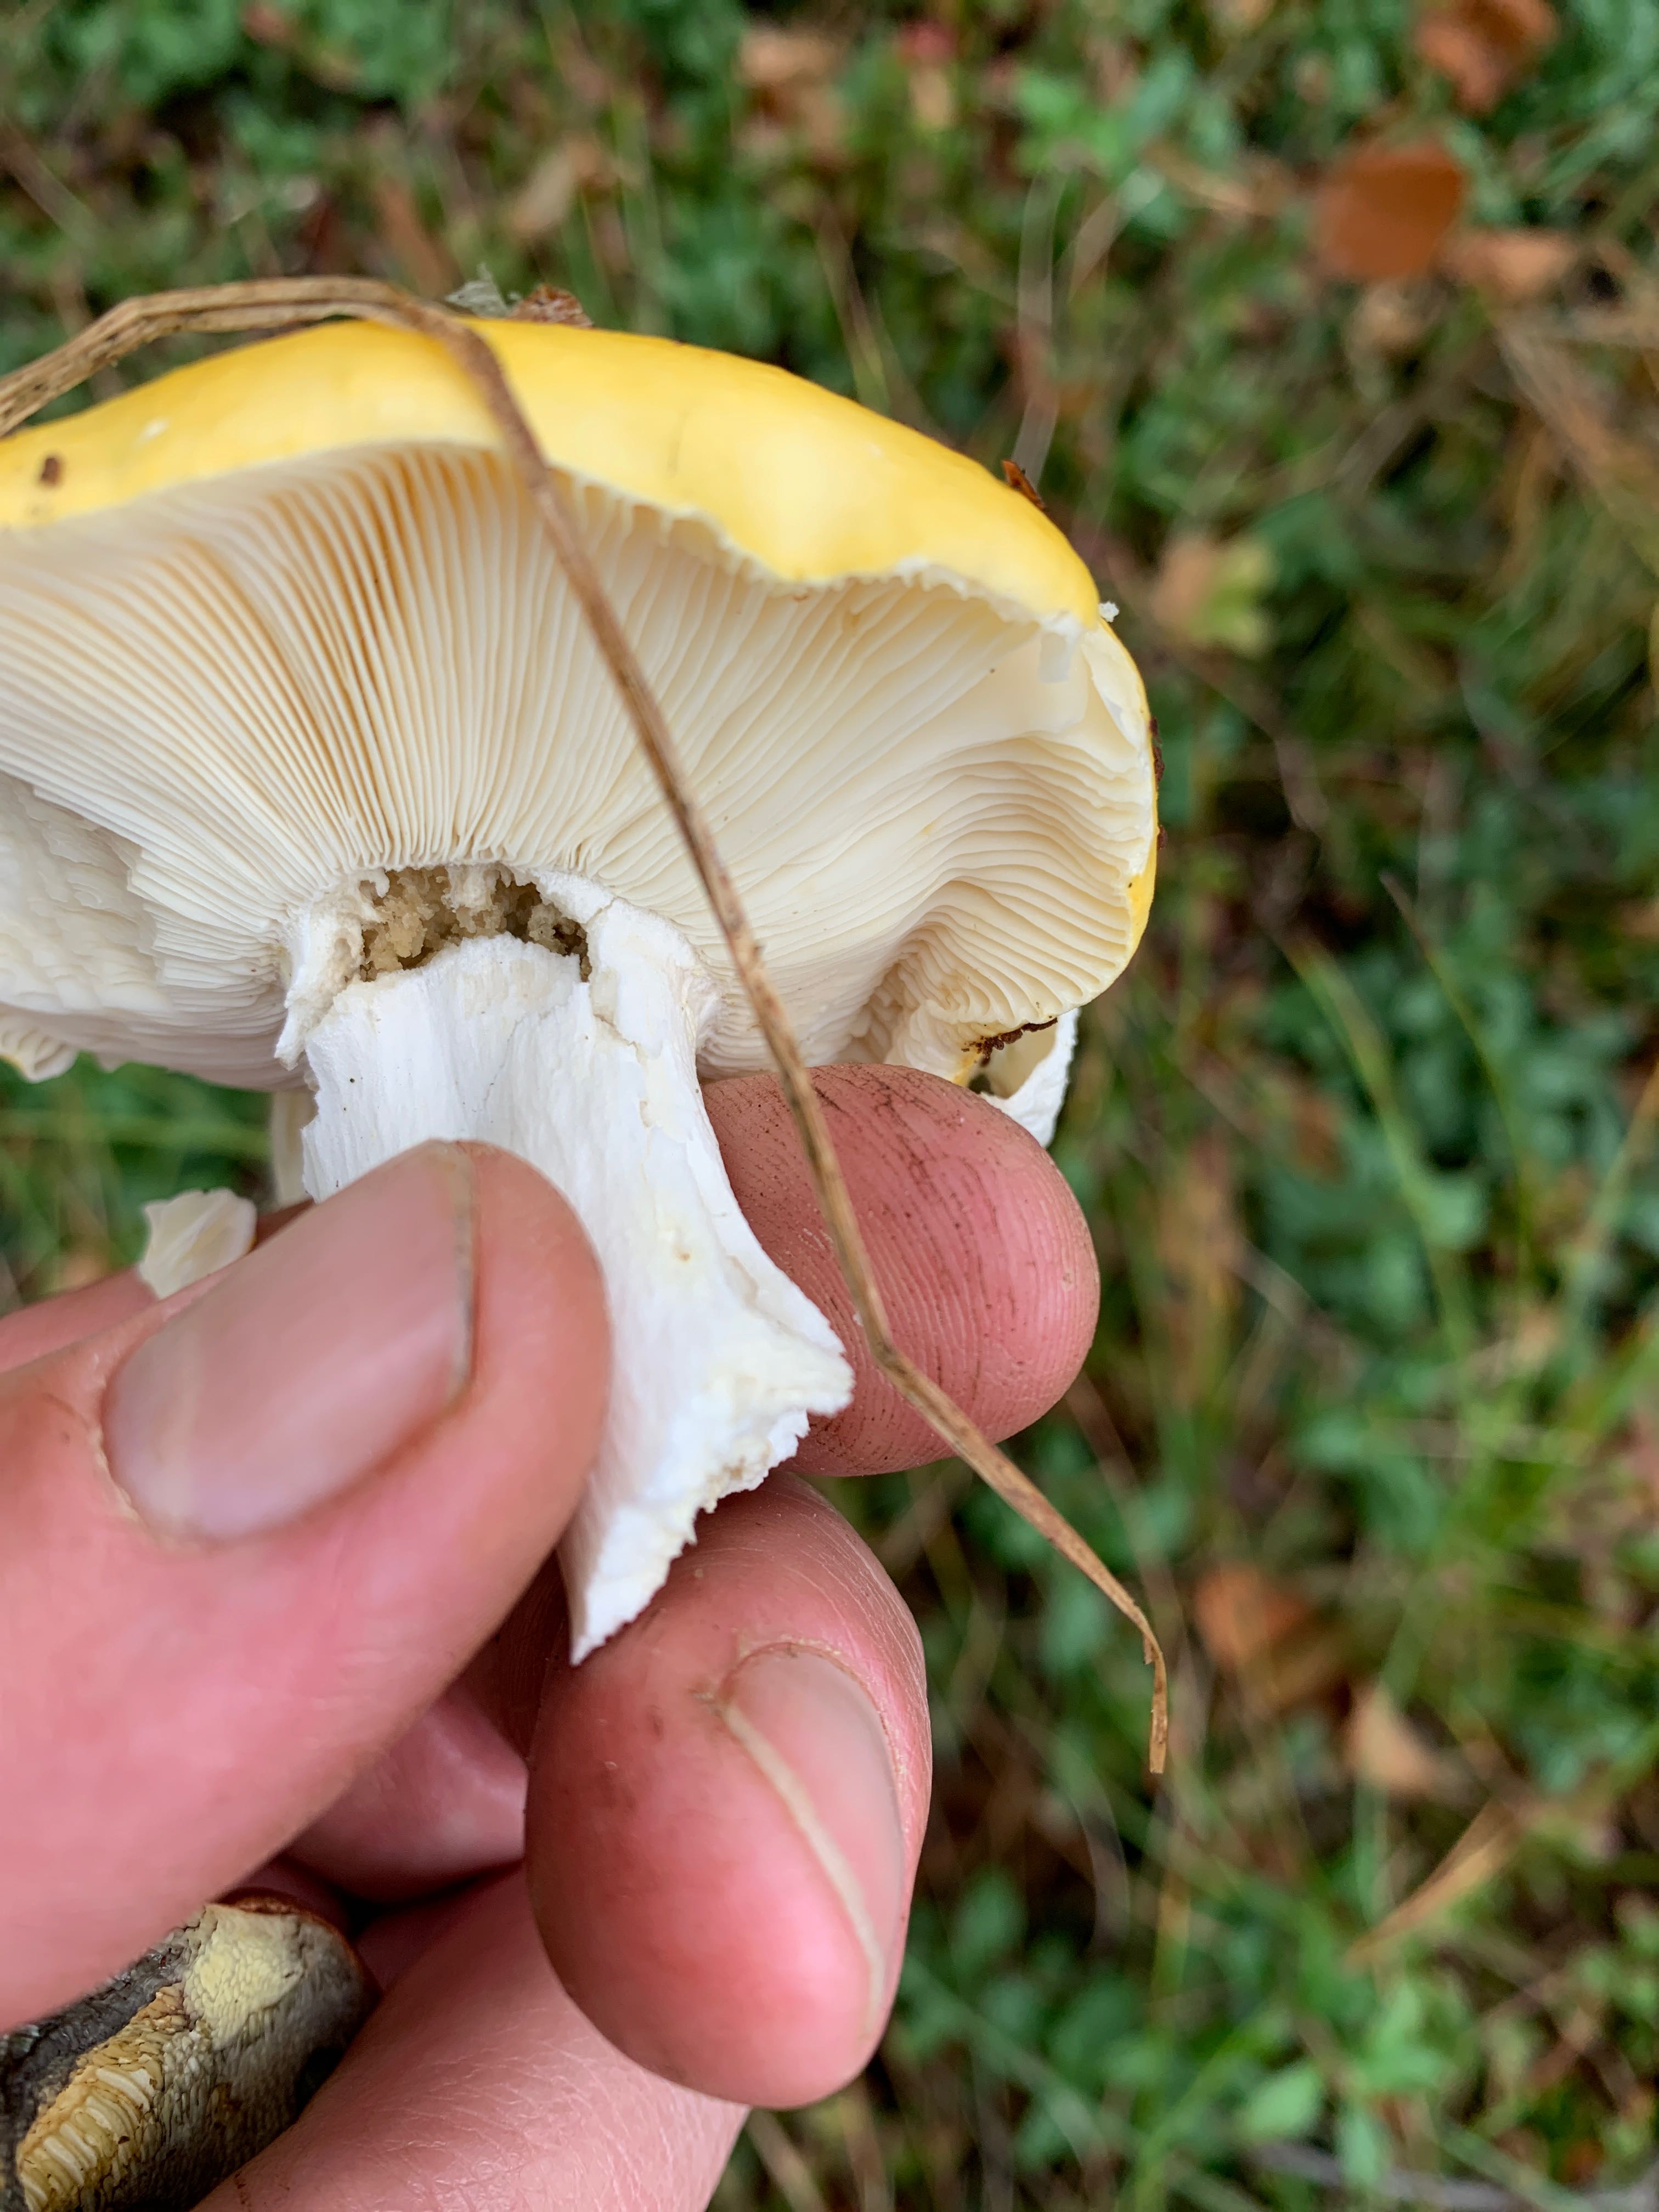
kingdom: Fungi
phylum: Basidiomycota
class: Agaricomycetes
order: Russulales
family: Russulaceae
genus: Russula
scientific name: Russula claroflava
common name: birke-skørhat
